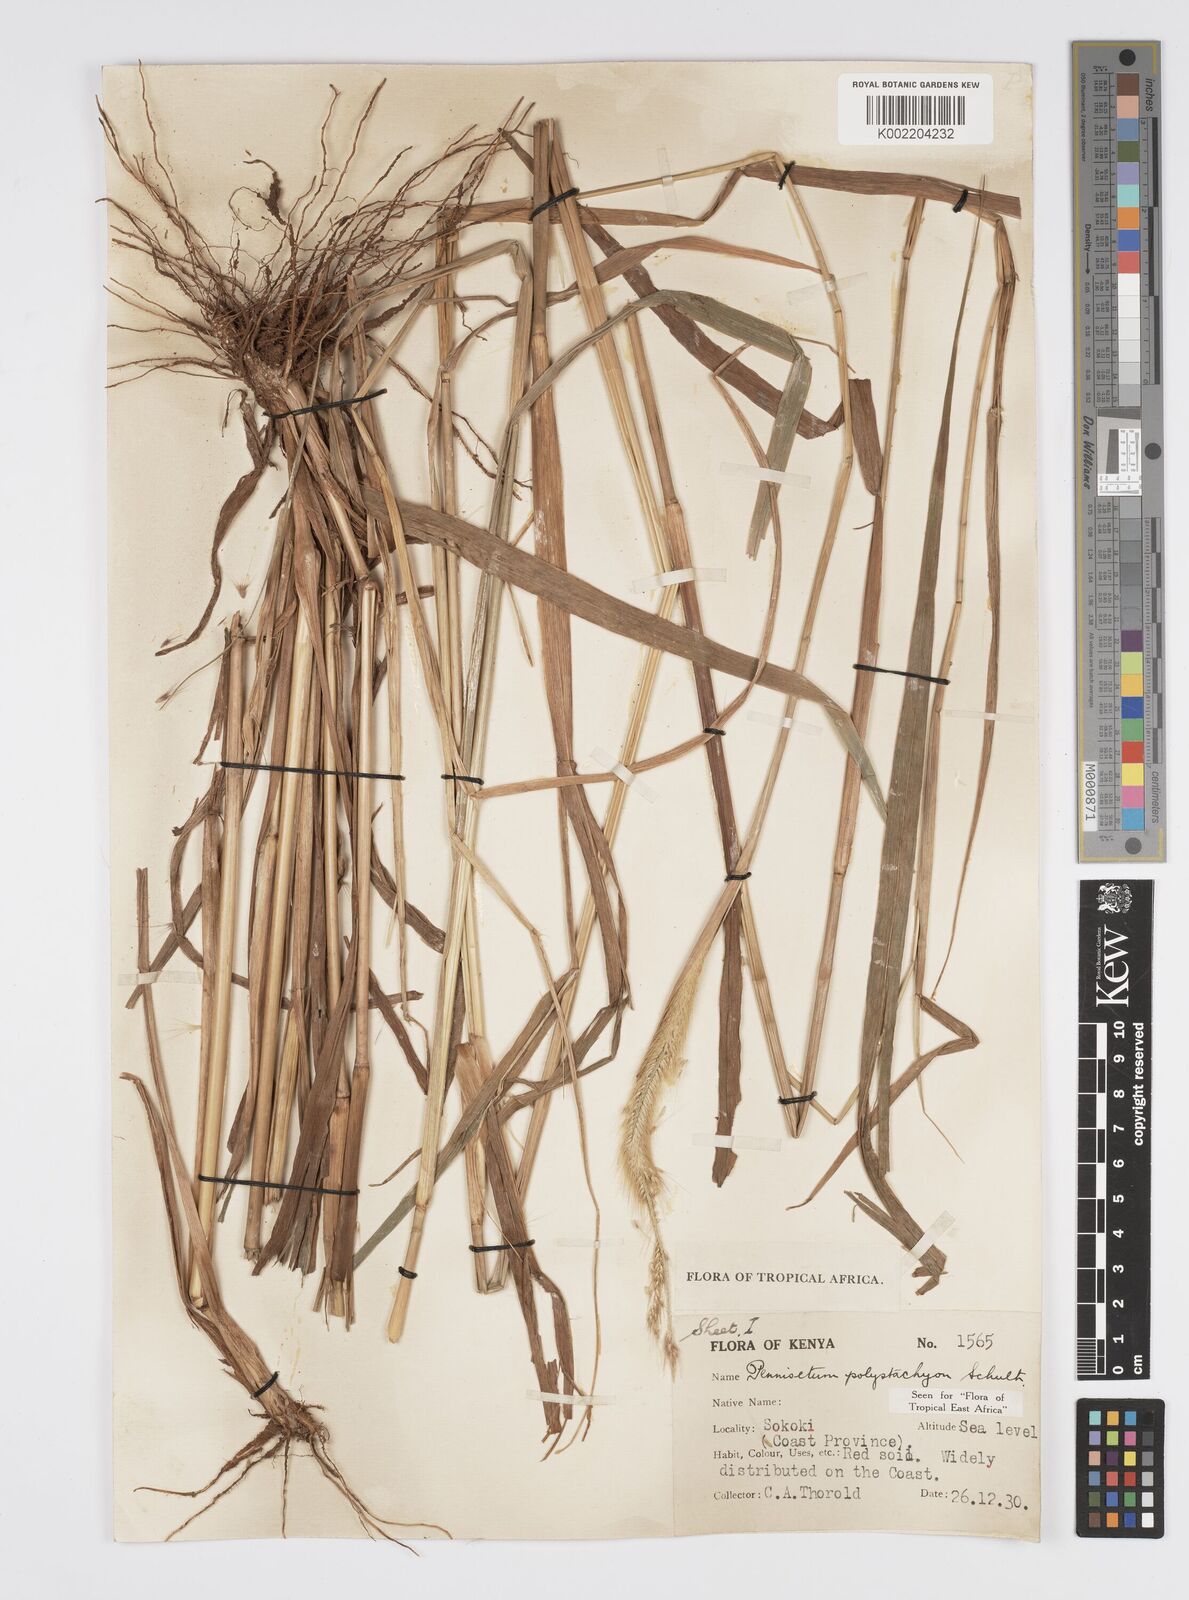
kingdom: Plantae
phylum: Tracheophyta
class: Liliopsida
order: Poales
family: Poaceae
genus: Cenchrus
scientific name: Cenchrus Pennisetum spec
